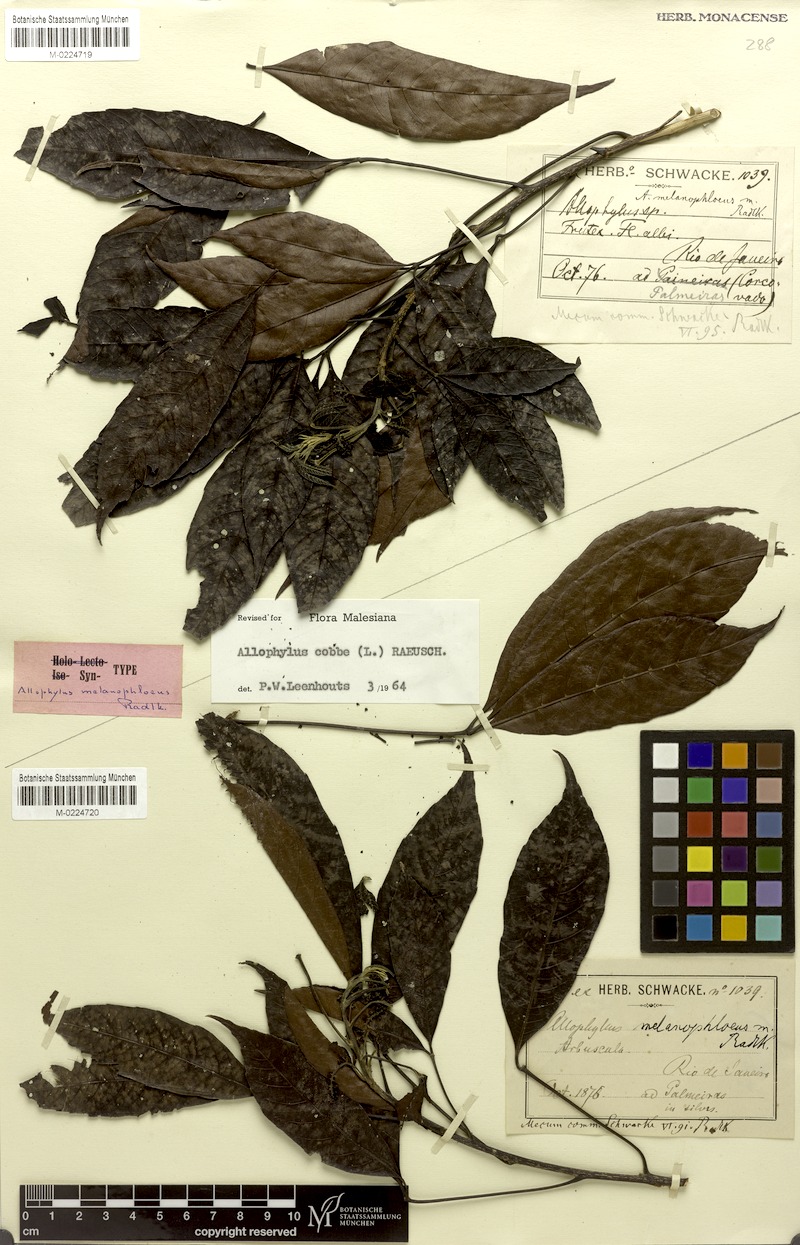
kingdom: Plantae
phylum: Tracheophyta
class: Magnoliopsida
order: Sapindales
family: Sapindaceae
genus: Allophylus
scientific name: Allophylus melanophloeus
